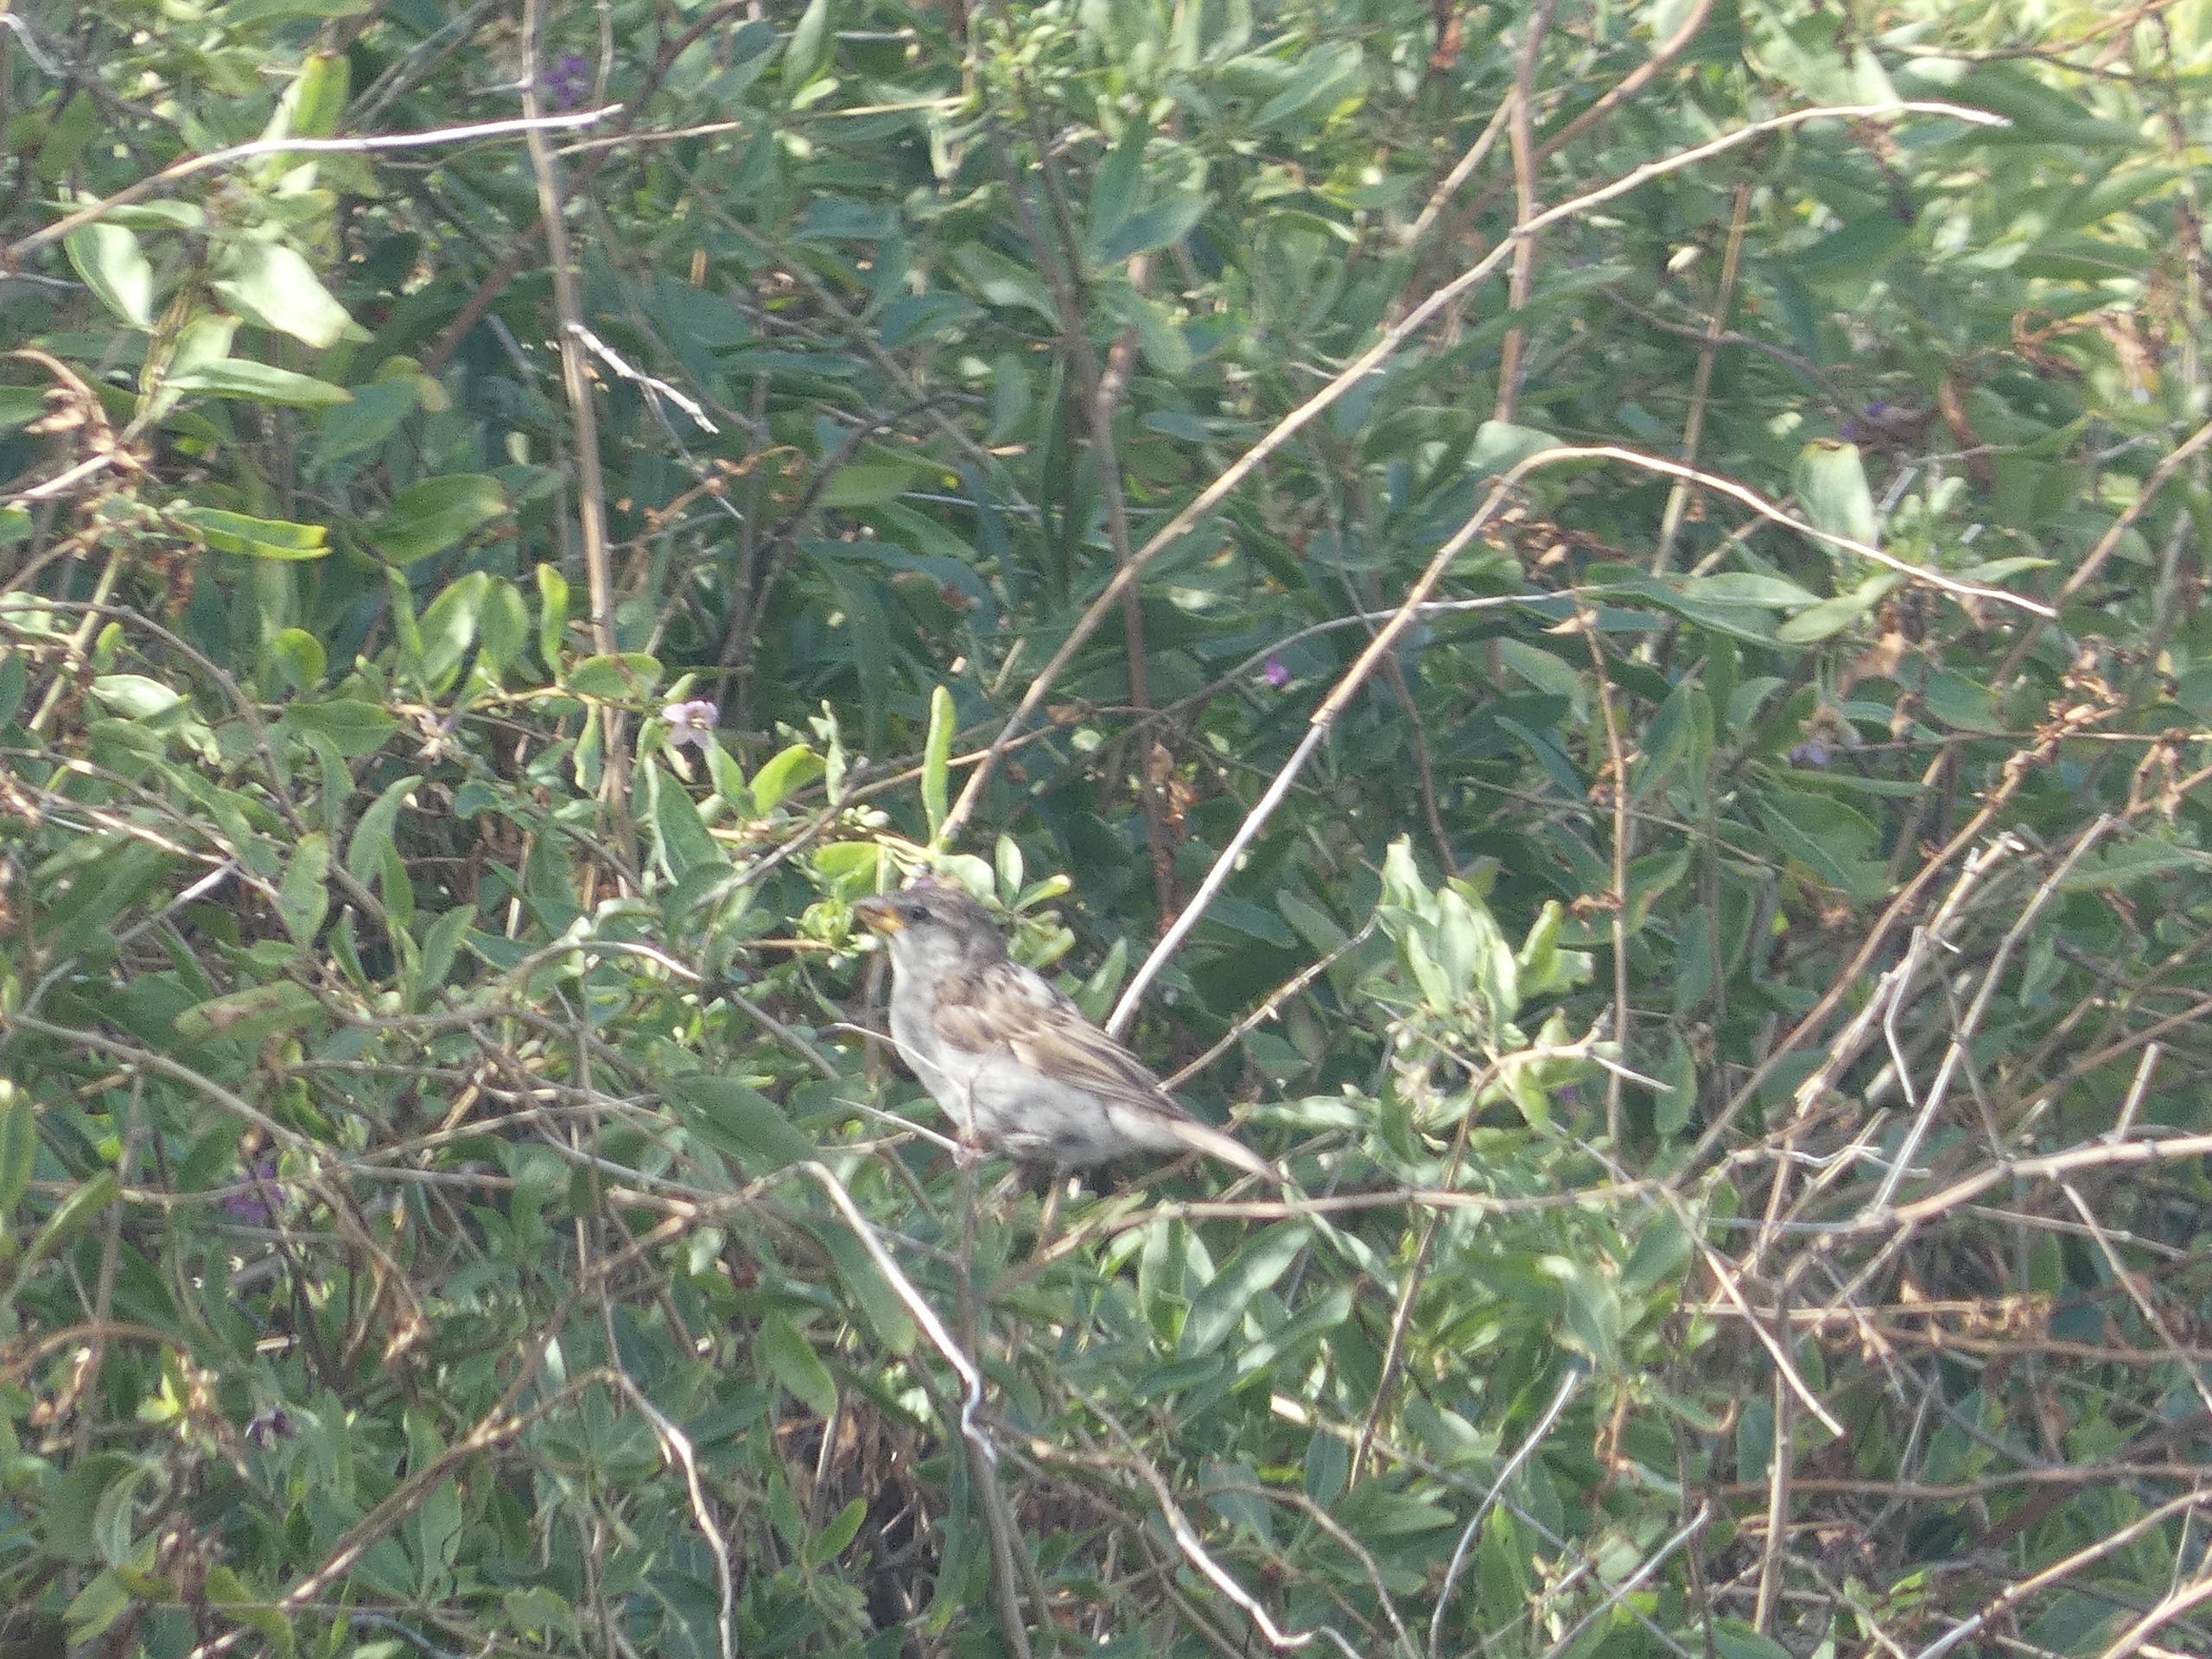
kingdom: Animalia
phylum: Chordata
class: Aves
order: Passeriformes
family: Passeridae
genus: Passer
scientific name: Passer domesticus
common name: Gråspurv
